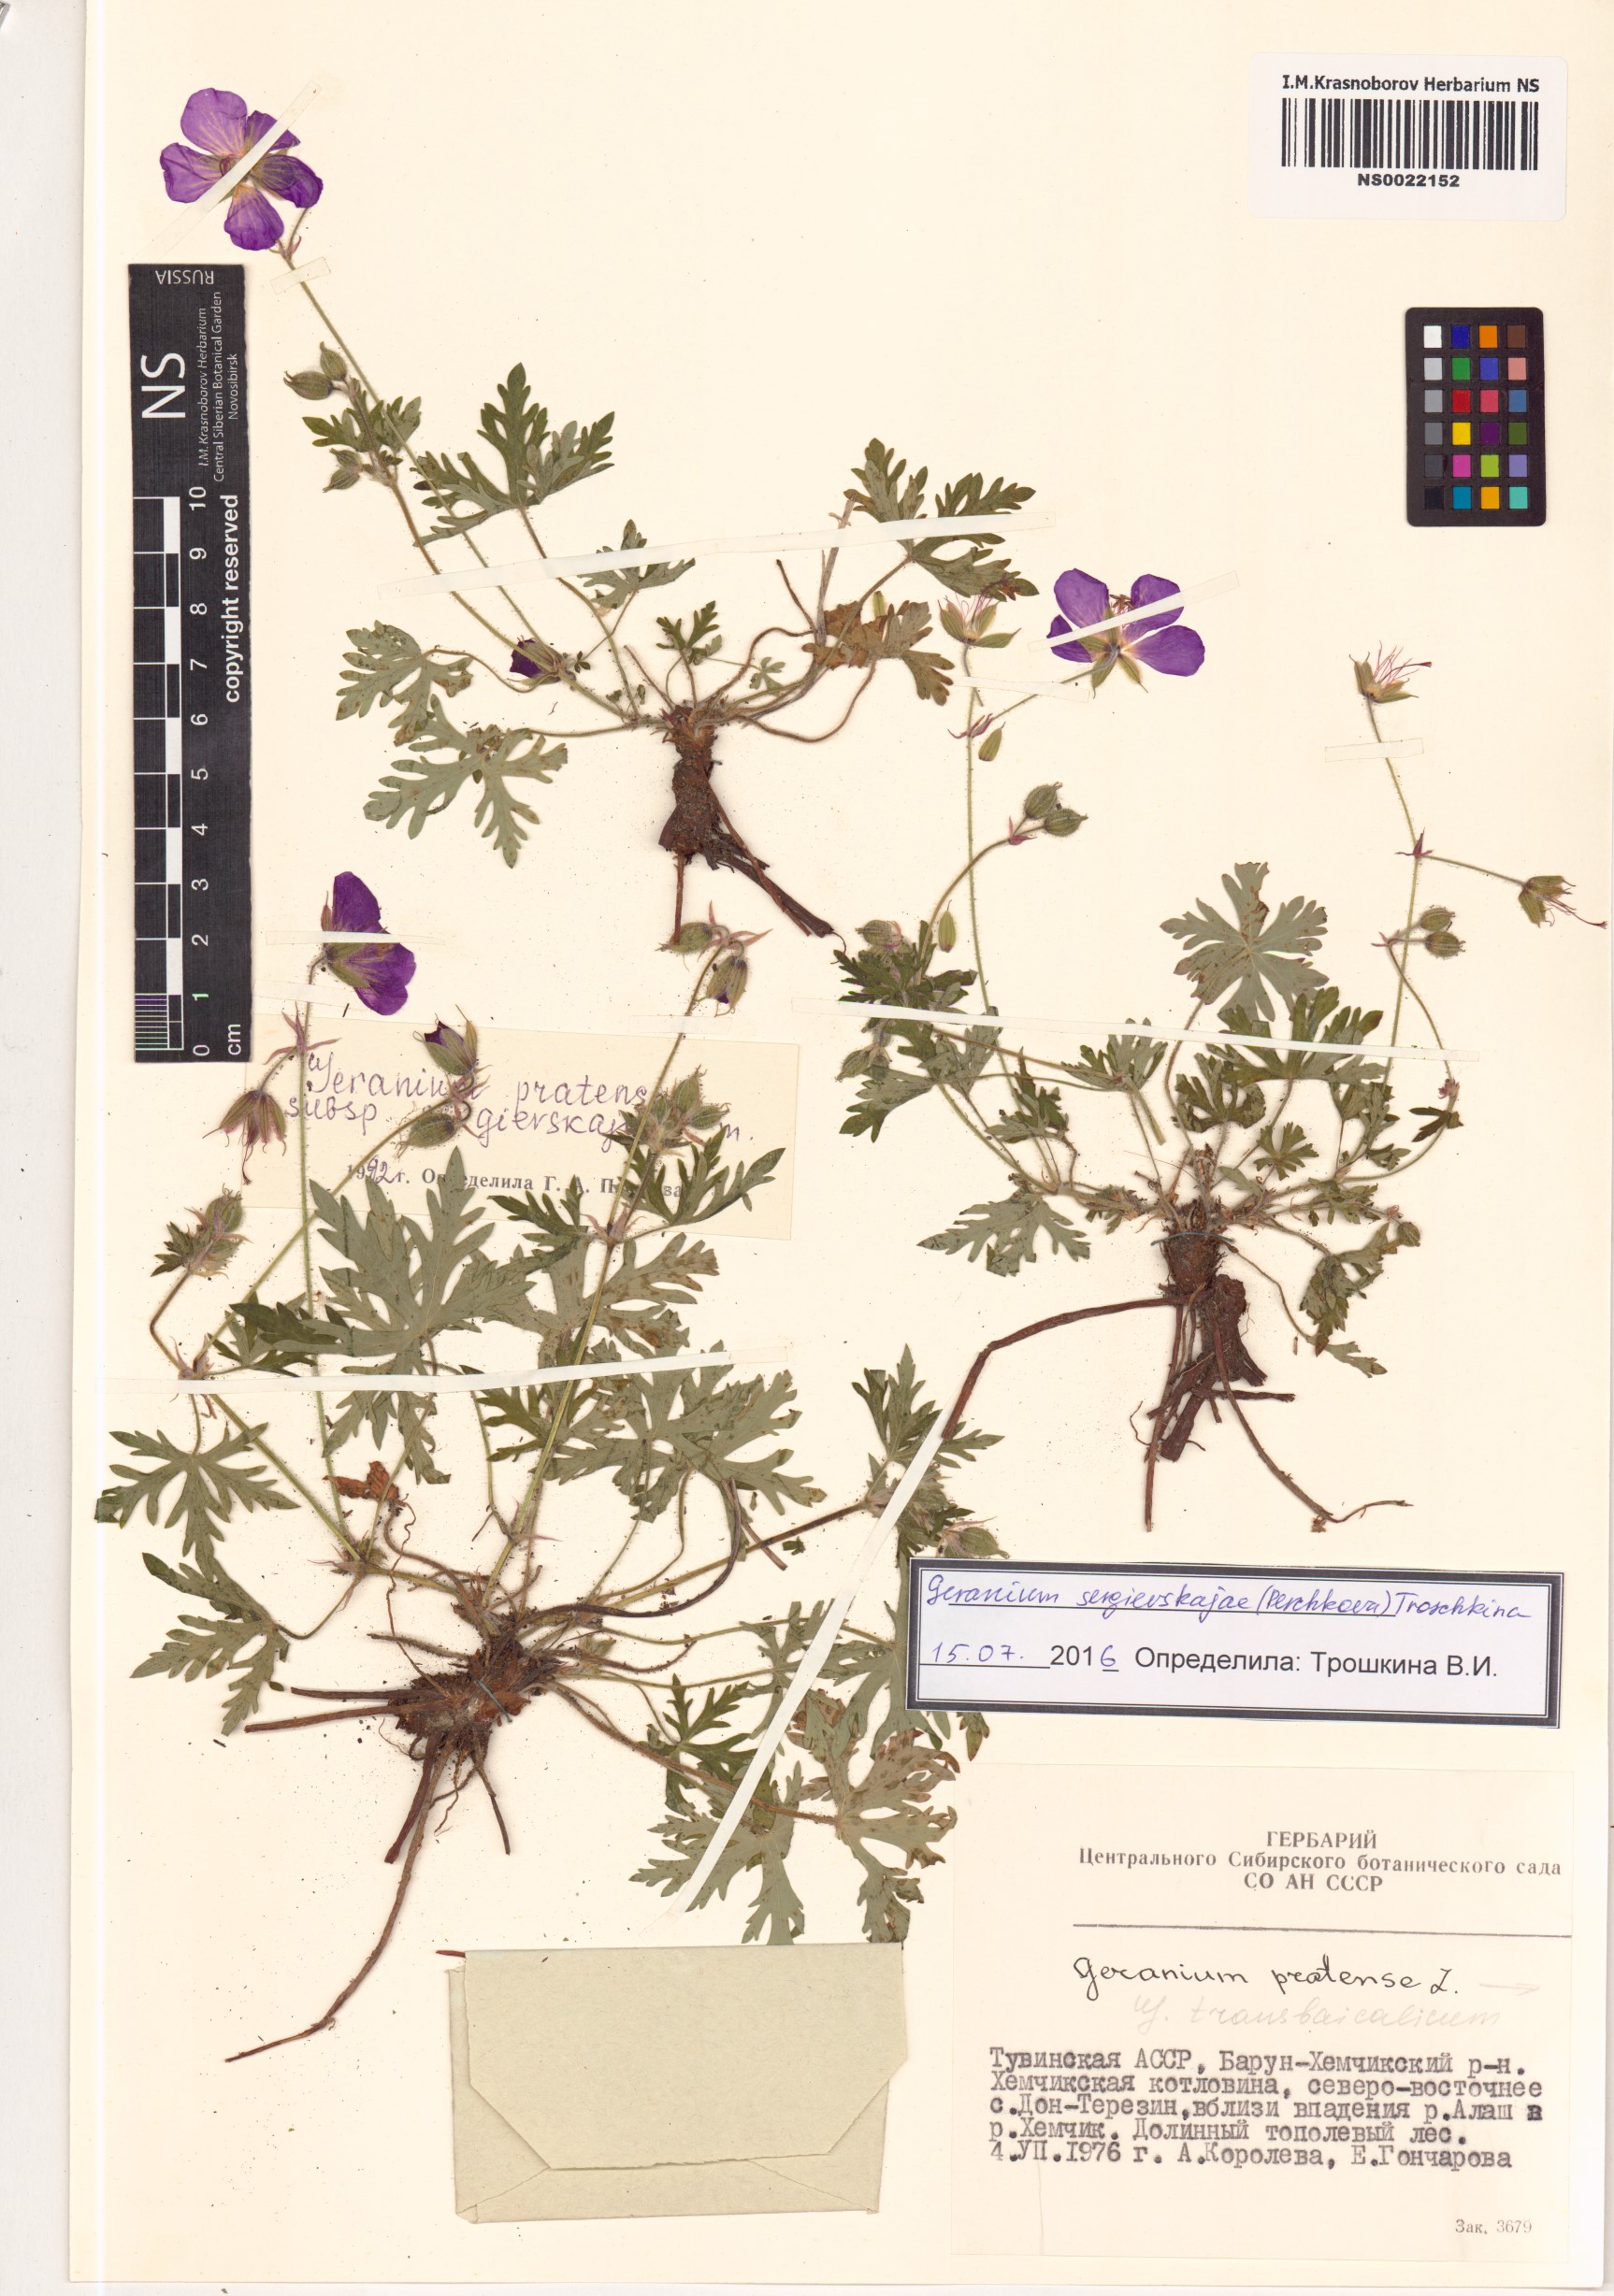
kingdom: Plantae
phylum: Tracheophyta
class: Magnoliopsida
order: Geraniales
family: Geraniaceae
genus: Geranium
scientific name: Geranium pratense
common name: Meadow crane's-bill
